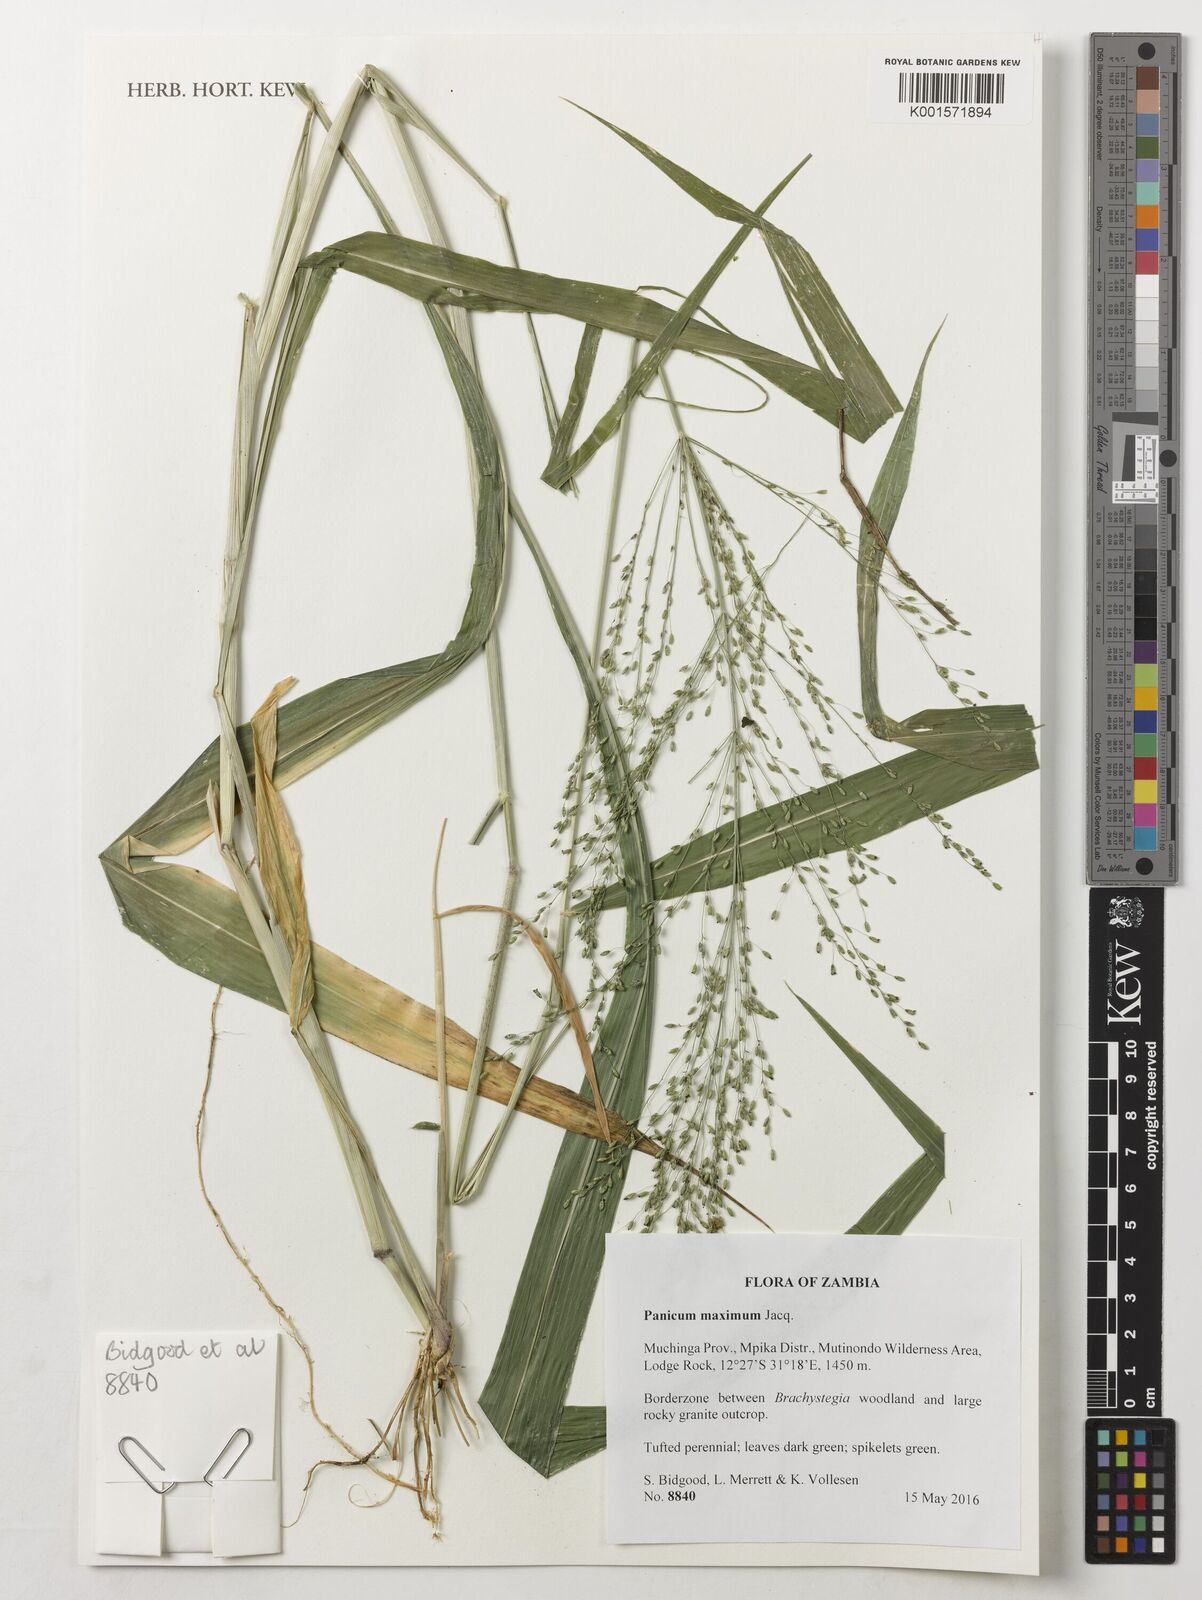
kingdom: Plantae
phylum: Tracheophyta
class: Liliopsida
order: Poales
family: Poaceae
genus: Megathyrsus
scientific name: Megathyrsus maximus
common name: Guineagrass
